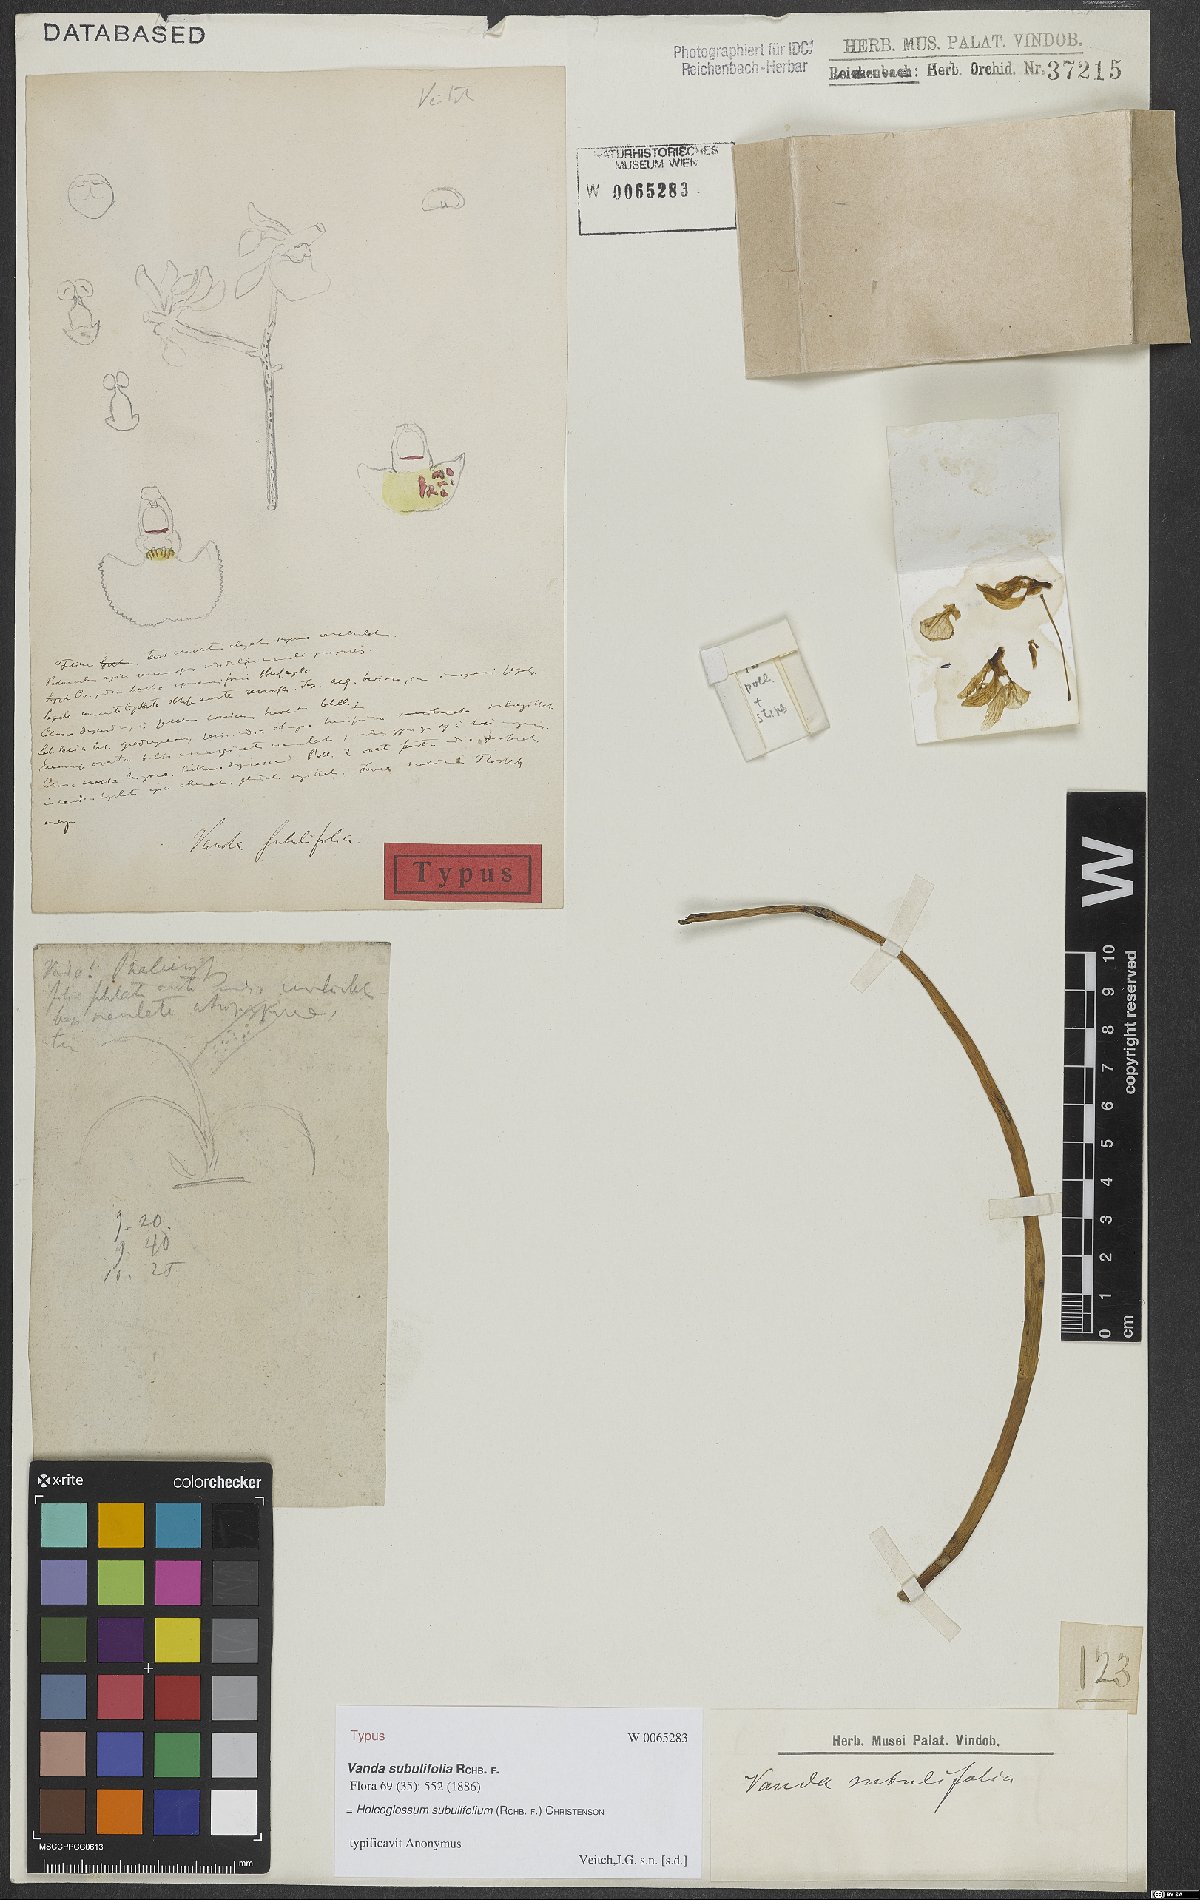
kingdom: Plantae
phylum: Tracheophyta
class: Liliopsida
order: Asparagales
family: Orchidaceae
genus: Holcoglossum
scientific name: Holcoglossum subulifolium
